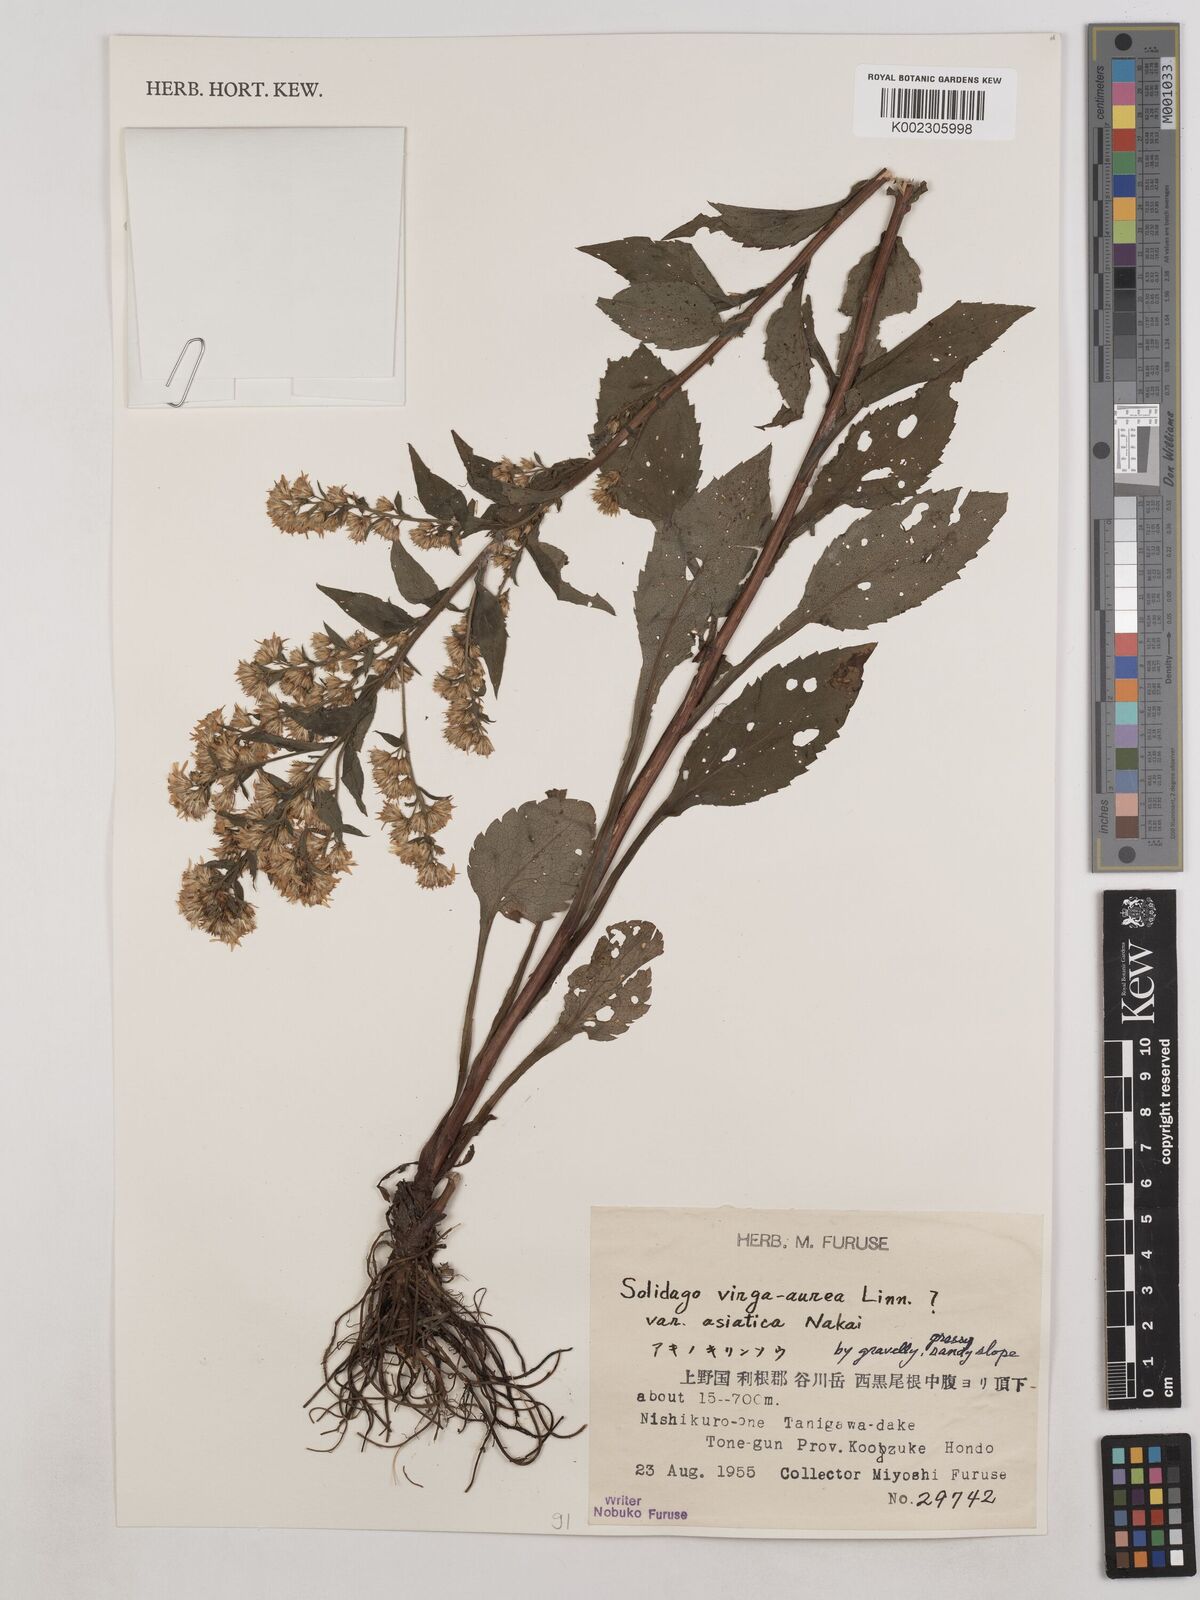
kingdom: Plantae
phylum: Tracheophyta
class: Magnoliopsida
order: Asterales
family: Asteraceae
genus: Solidago
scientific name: Solidago virgaurea
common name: Goldenrod
